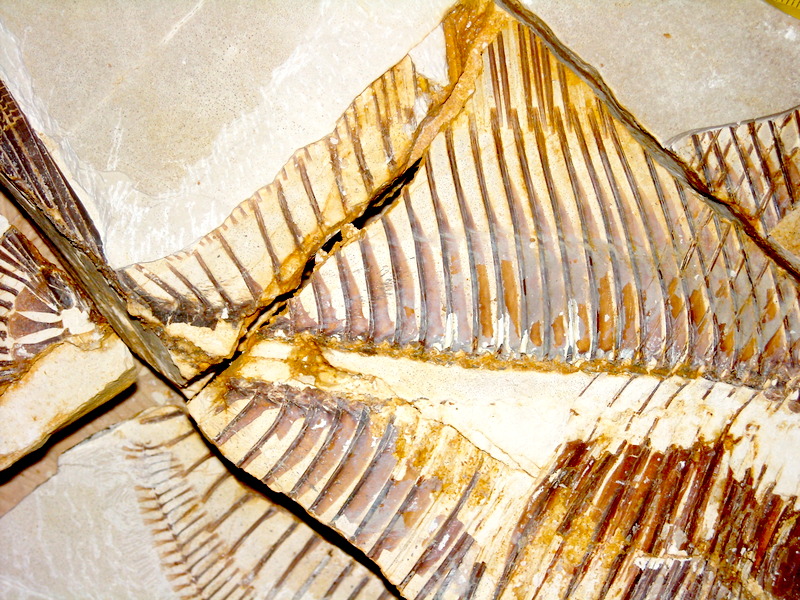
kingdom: Animalia
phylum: Chordata
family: Pycnodontidae
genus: Proscinetes
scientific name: Proscinetes elegans
